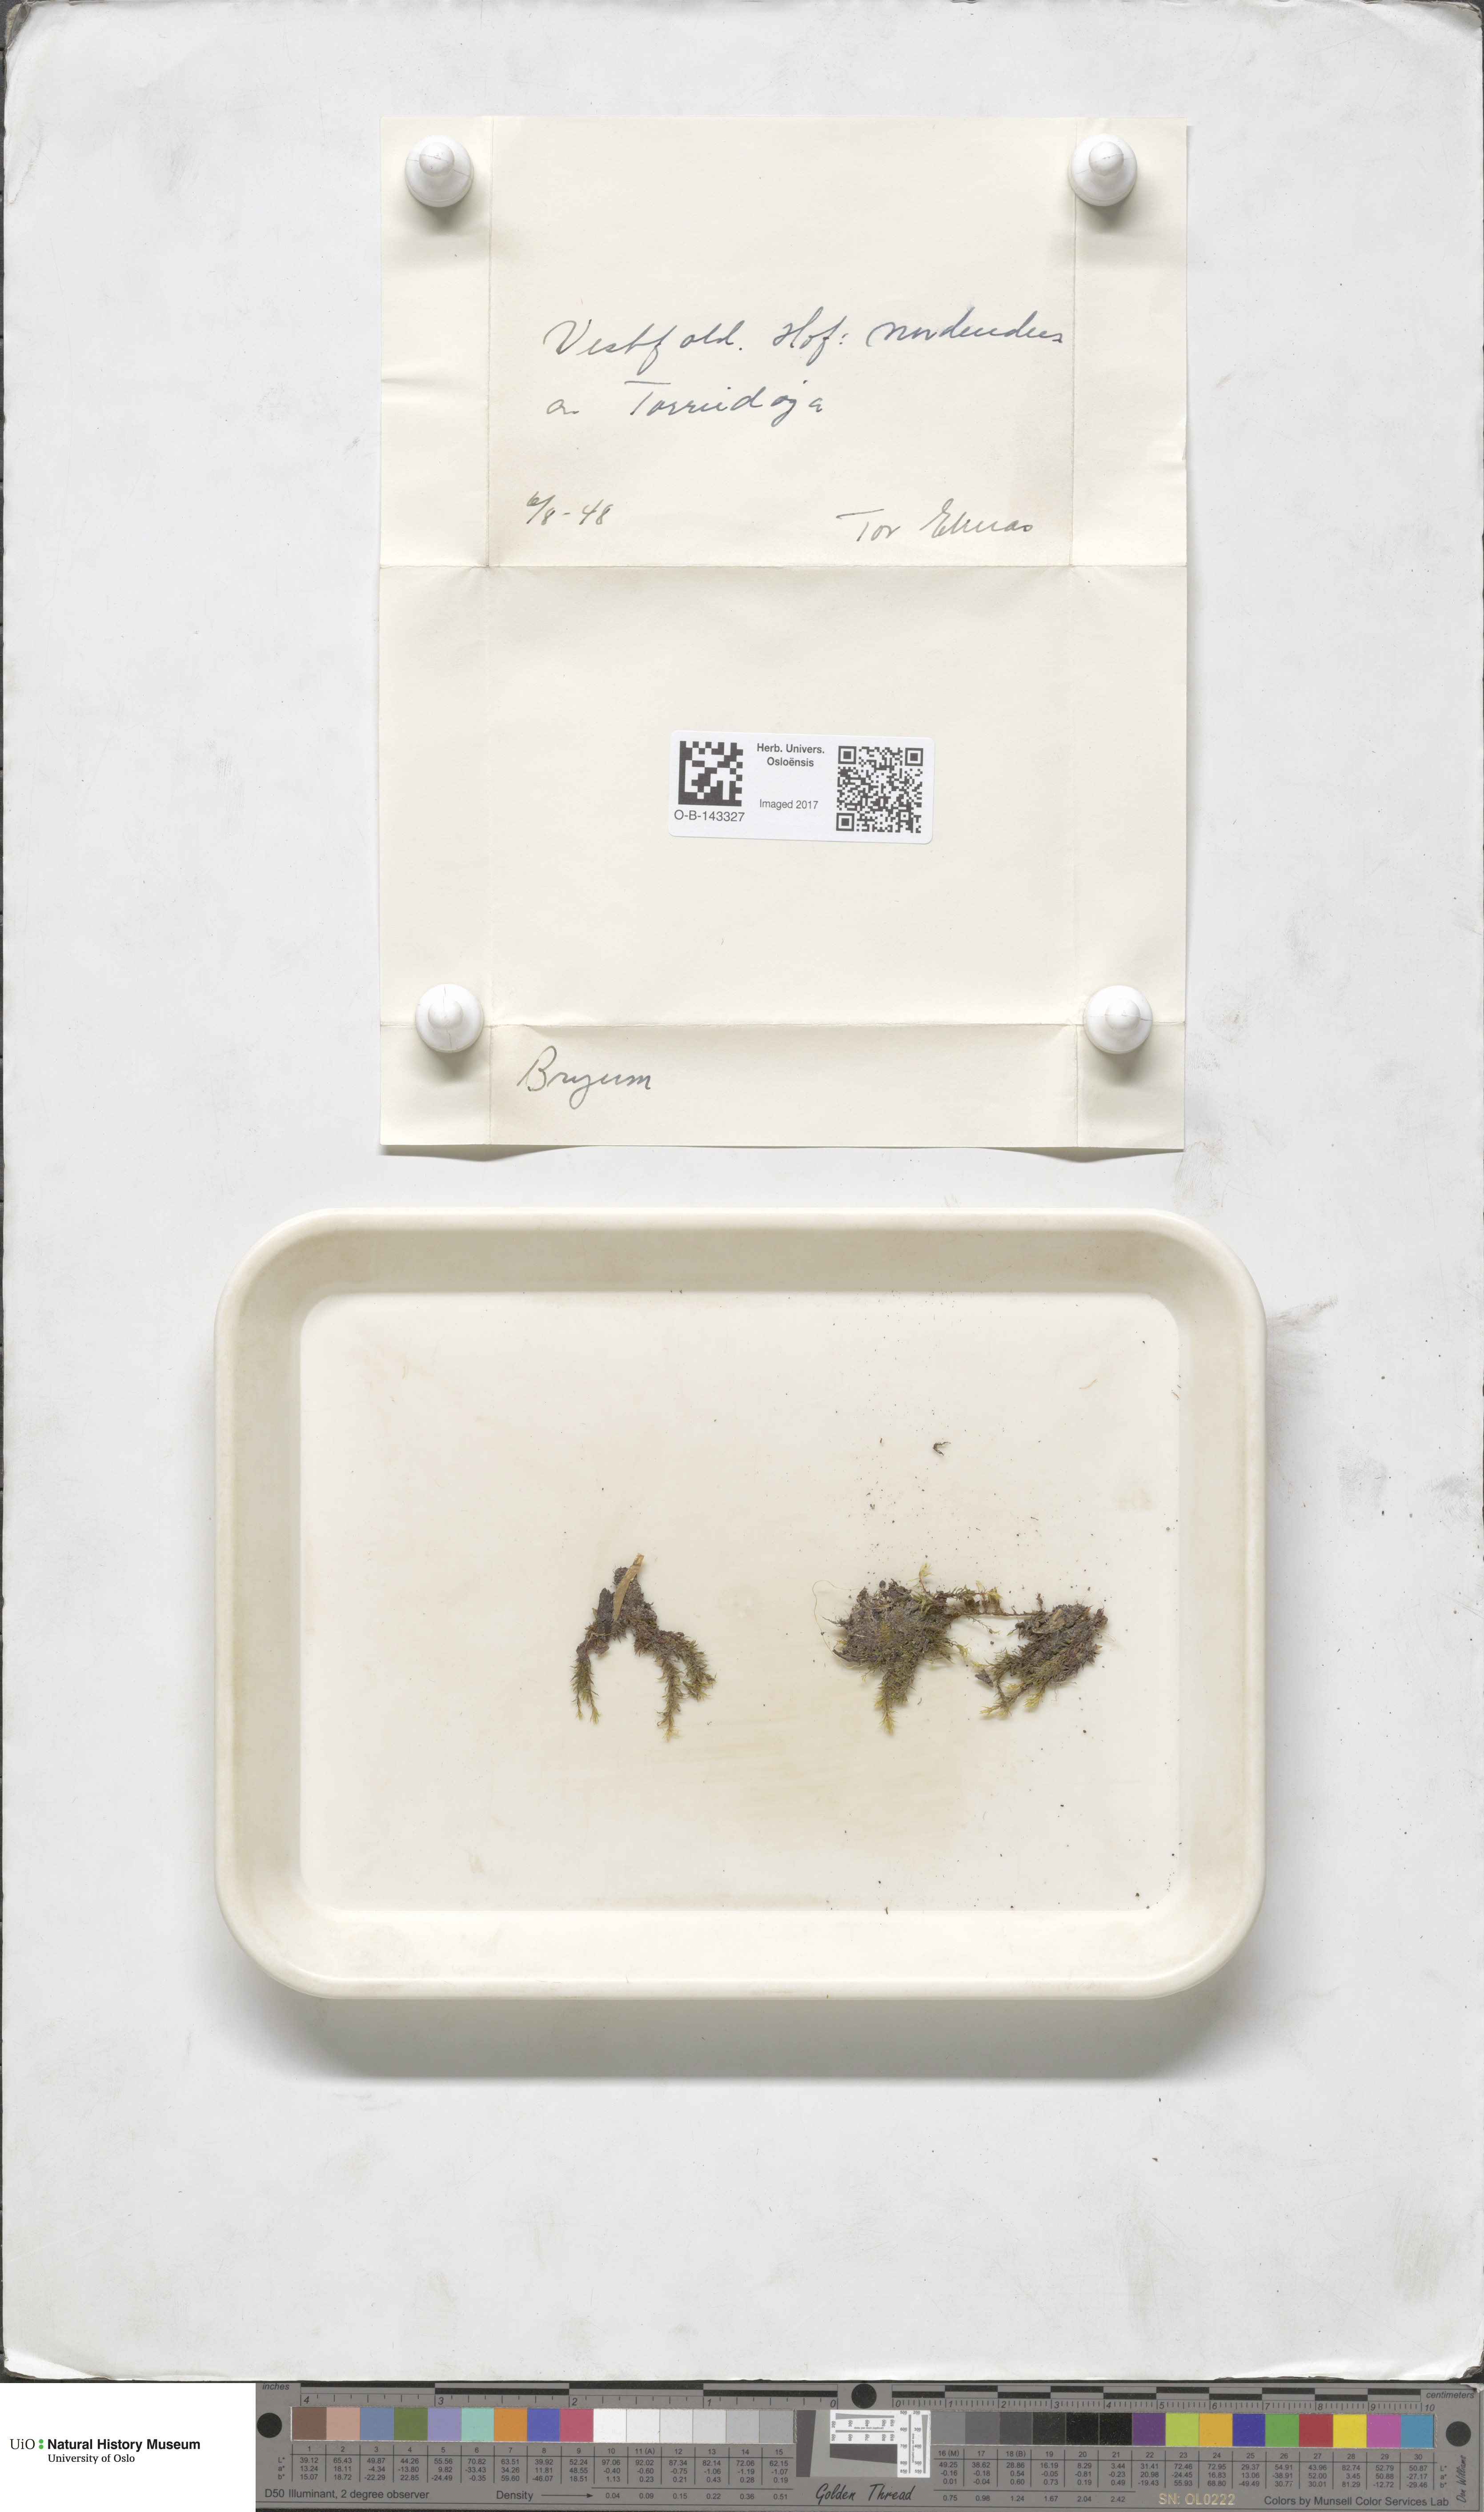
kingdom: Plantae
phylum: Bryophyta
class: Bryopsida
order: Bryales
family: Bryaceae
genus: Bryum
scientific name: Bryum
